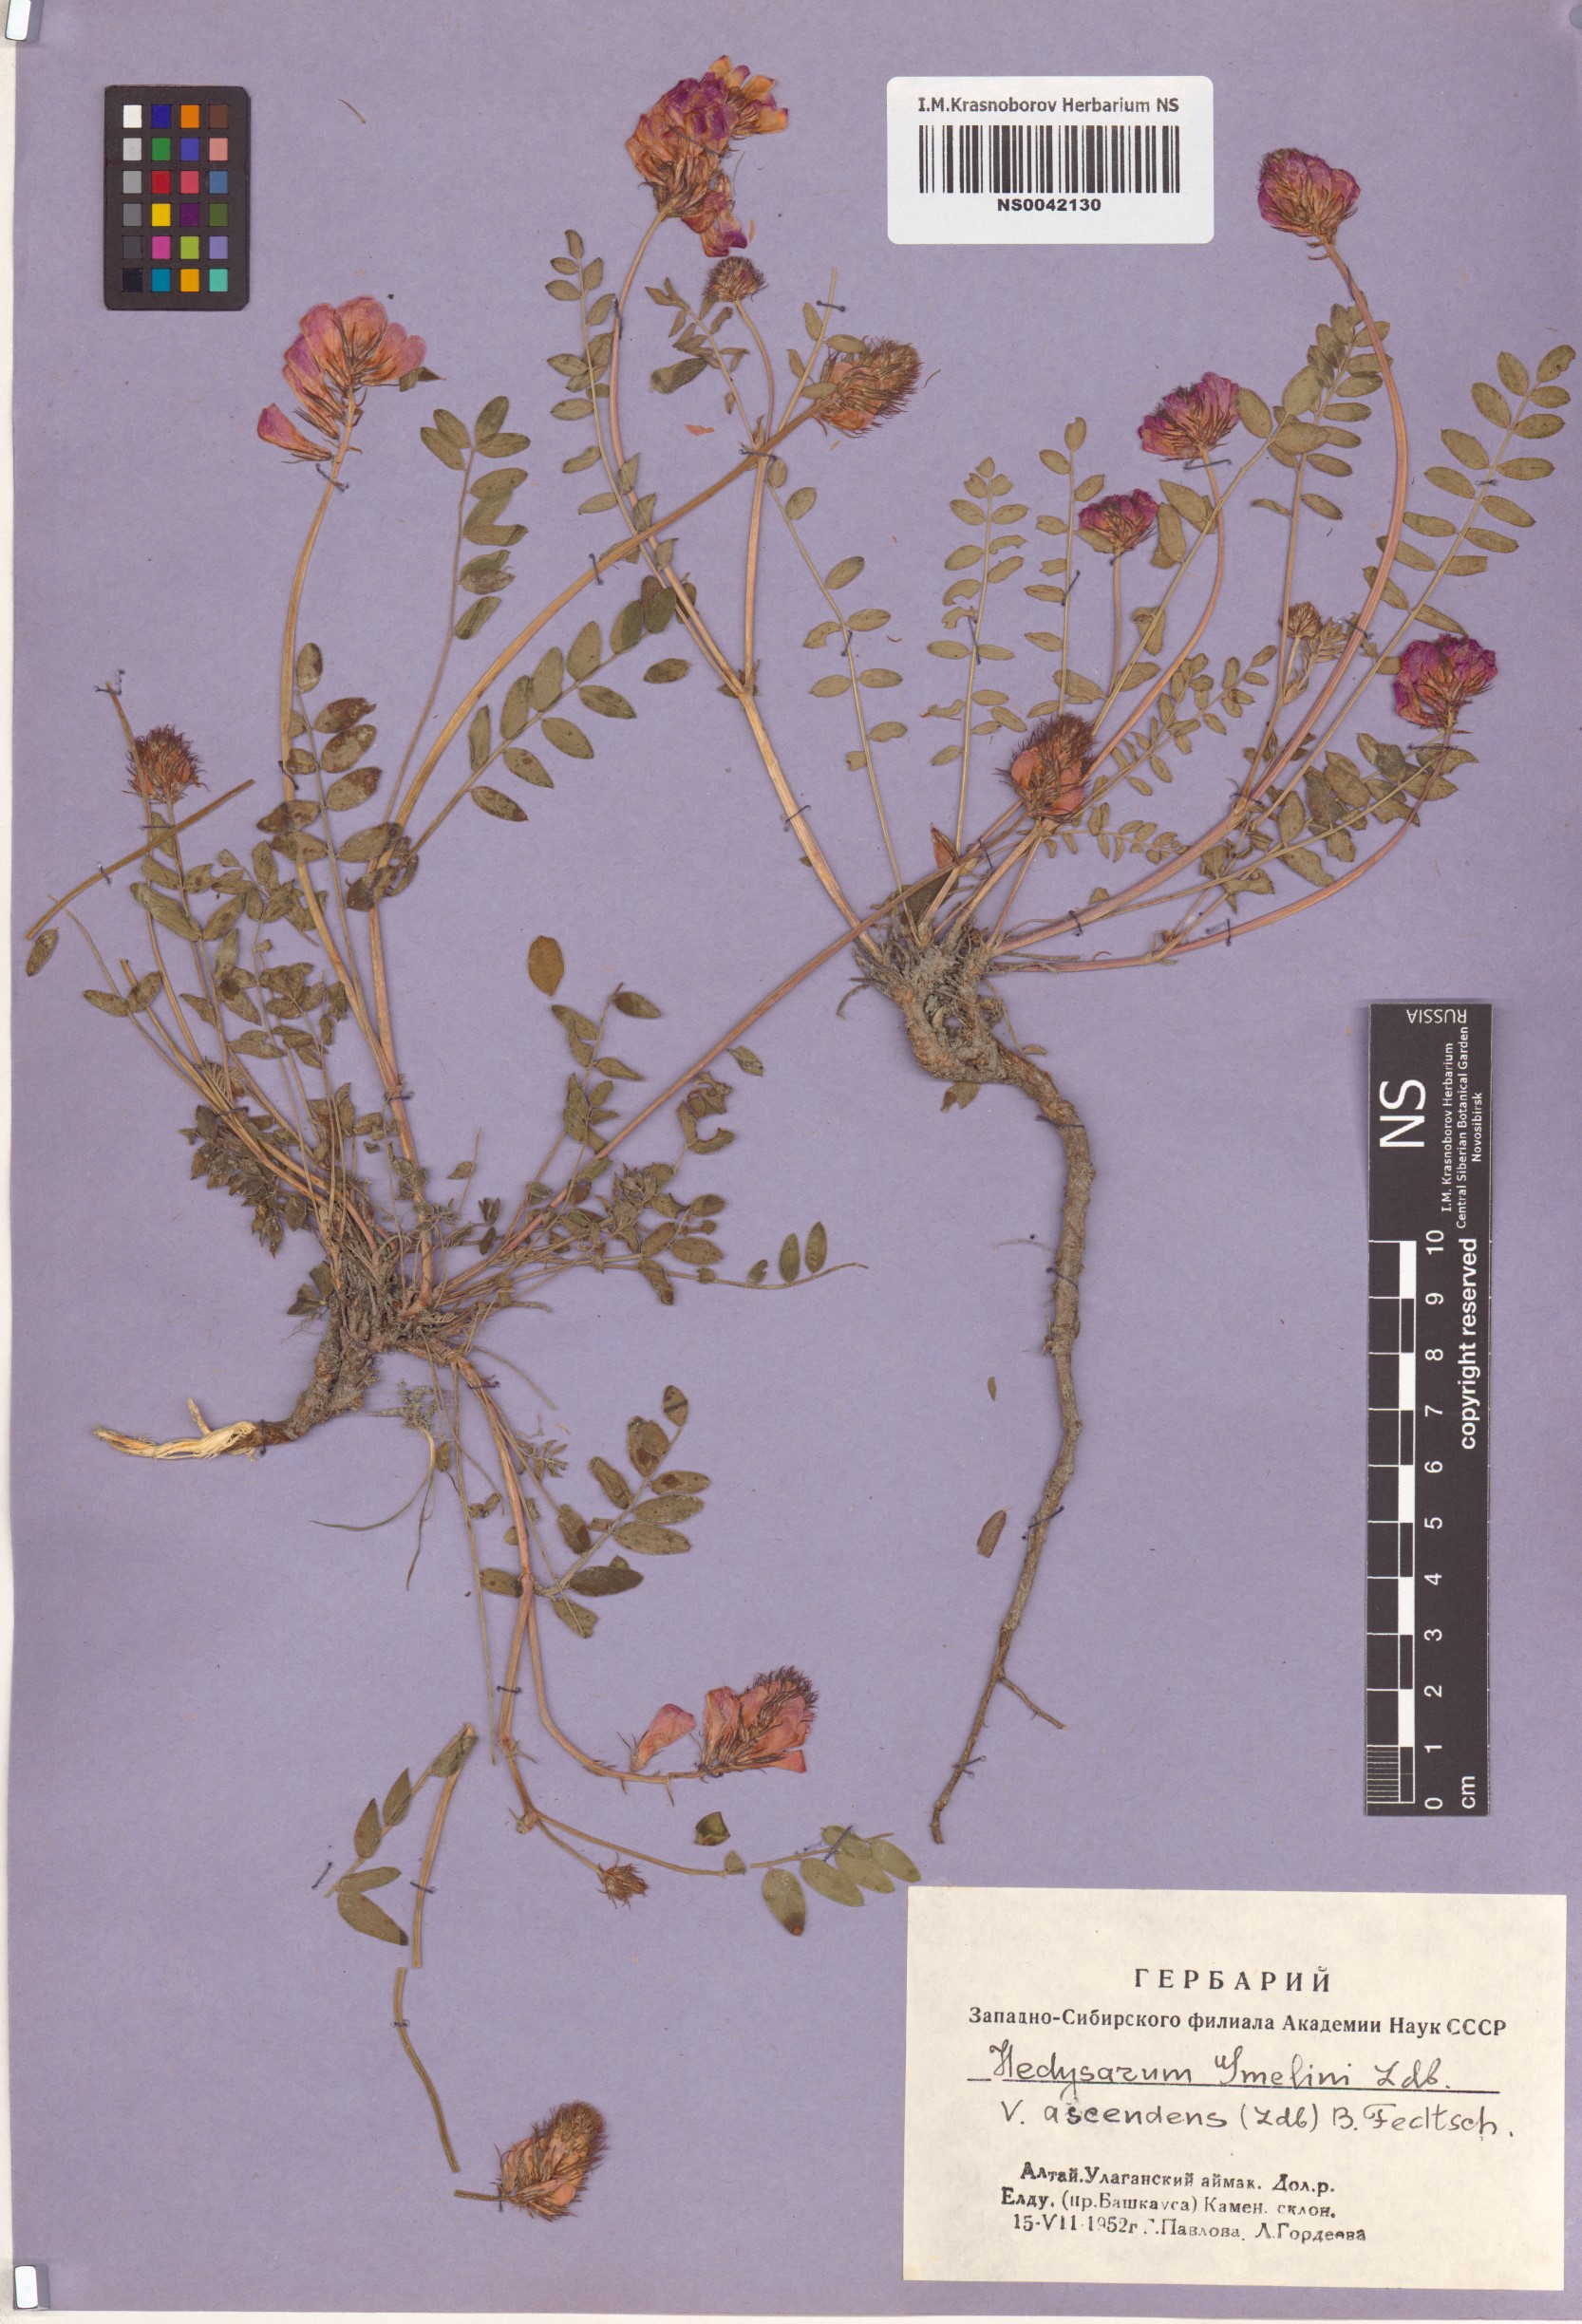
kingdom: Plantae
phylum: Tracheophyta
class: Magnoliopsida
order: Fabales
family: Fabaceae
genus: Hedysarum
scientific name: Hedysarum gmelinii
